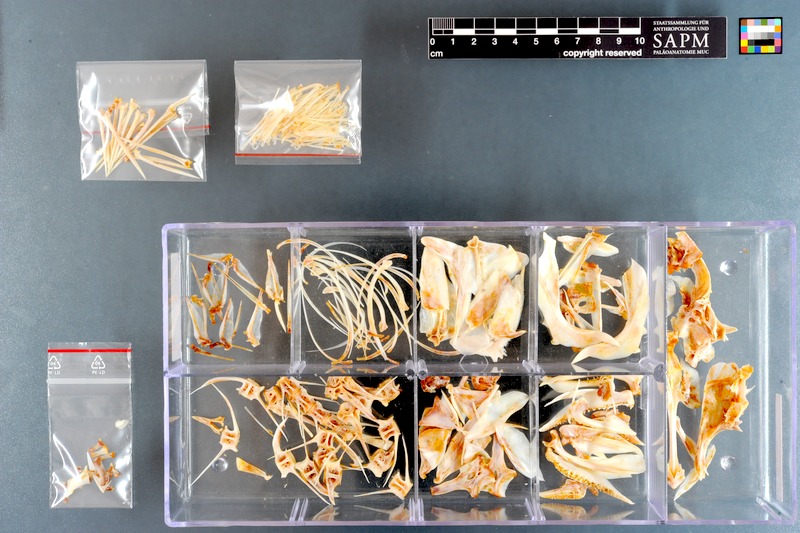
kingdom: Animalia
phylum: Chordata
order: Perciformes
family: Serranidae
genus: Epinephelus
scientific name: Epinephelus albomarginatus
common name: Captain fine
